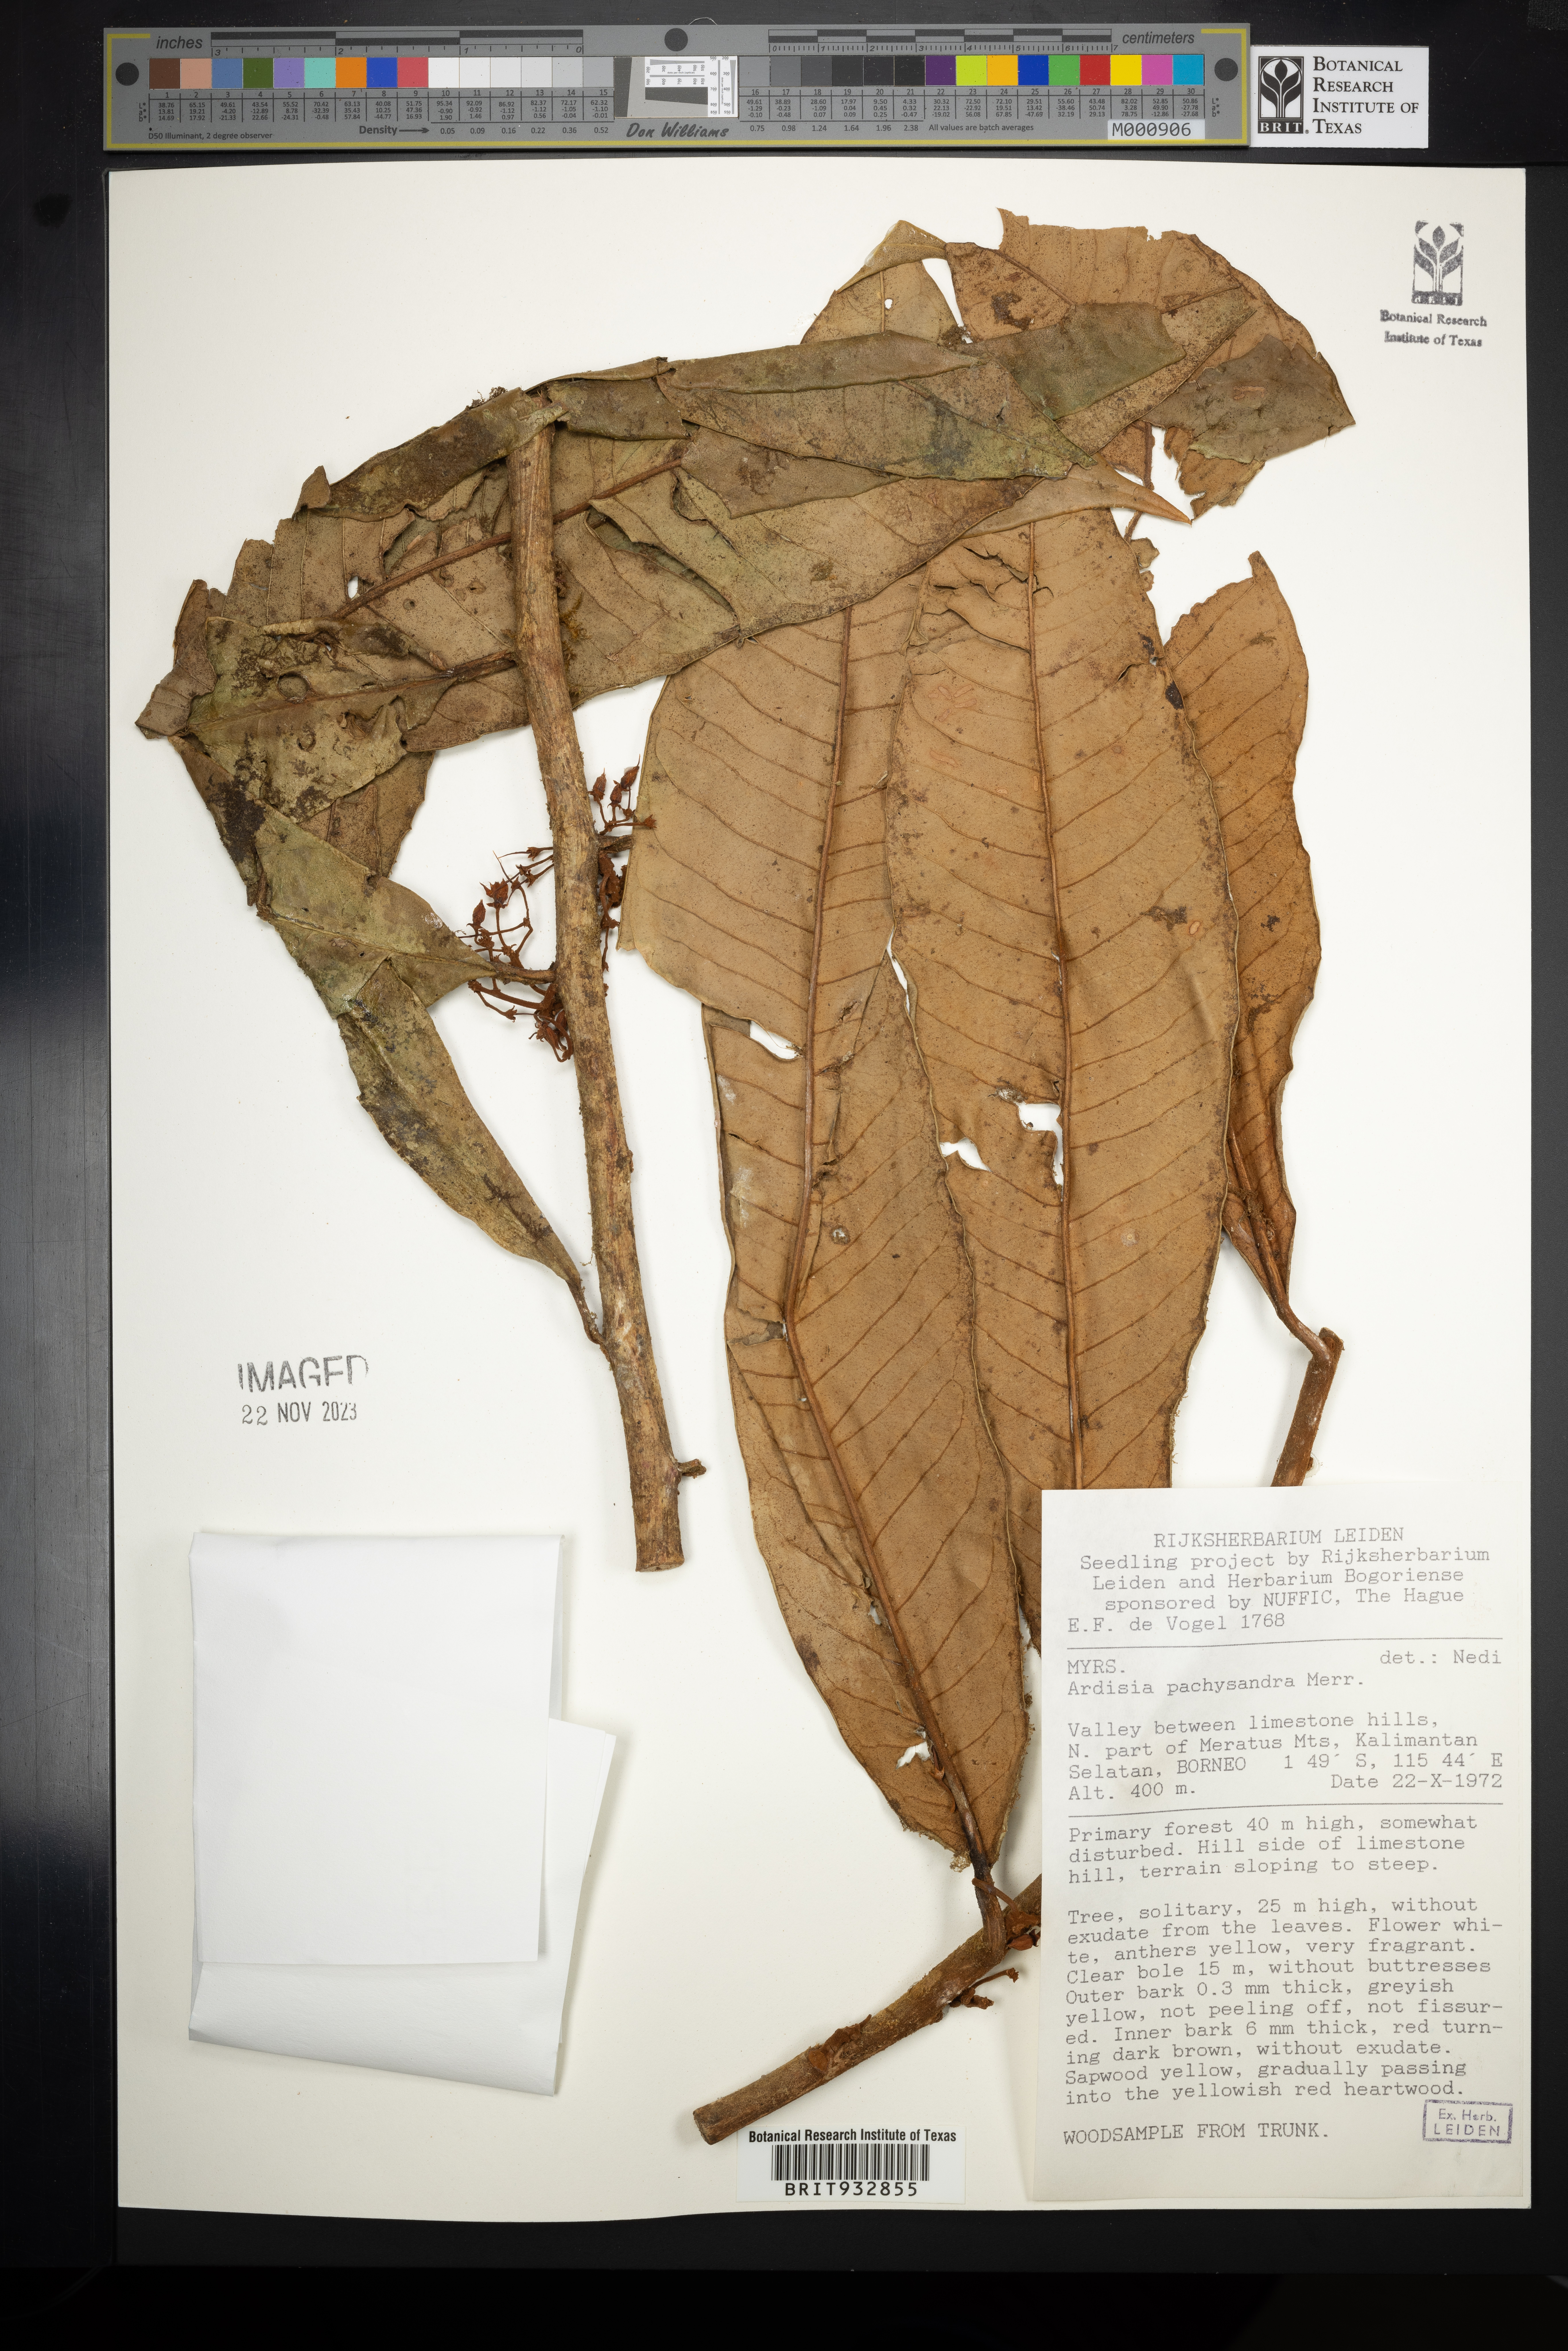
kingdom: Plantae
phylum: Tracheophyta
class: Magnoliopsida
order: Ericales
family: Primulaceae
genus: Ardisia
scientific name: Ardisia
